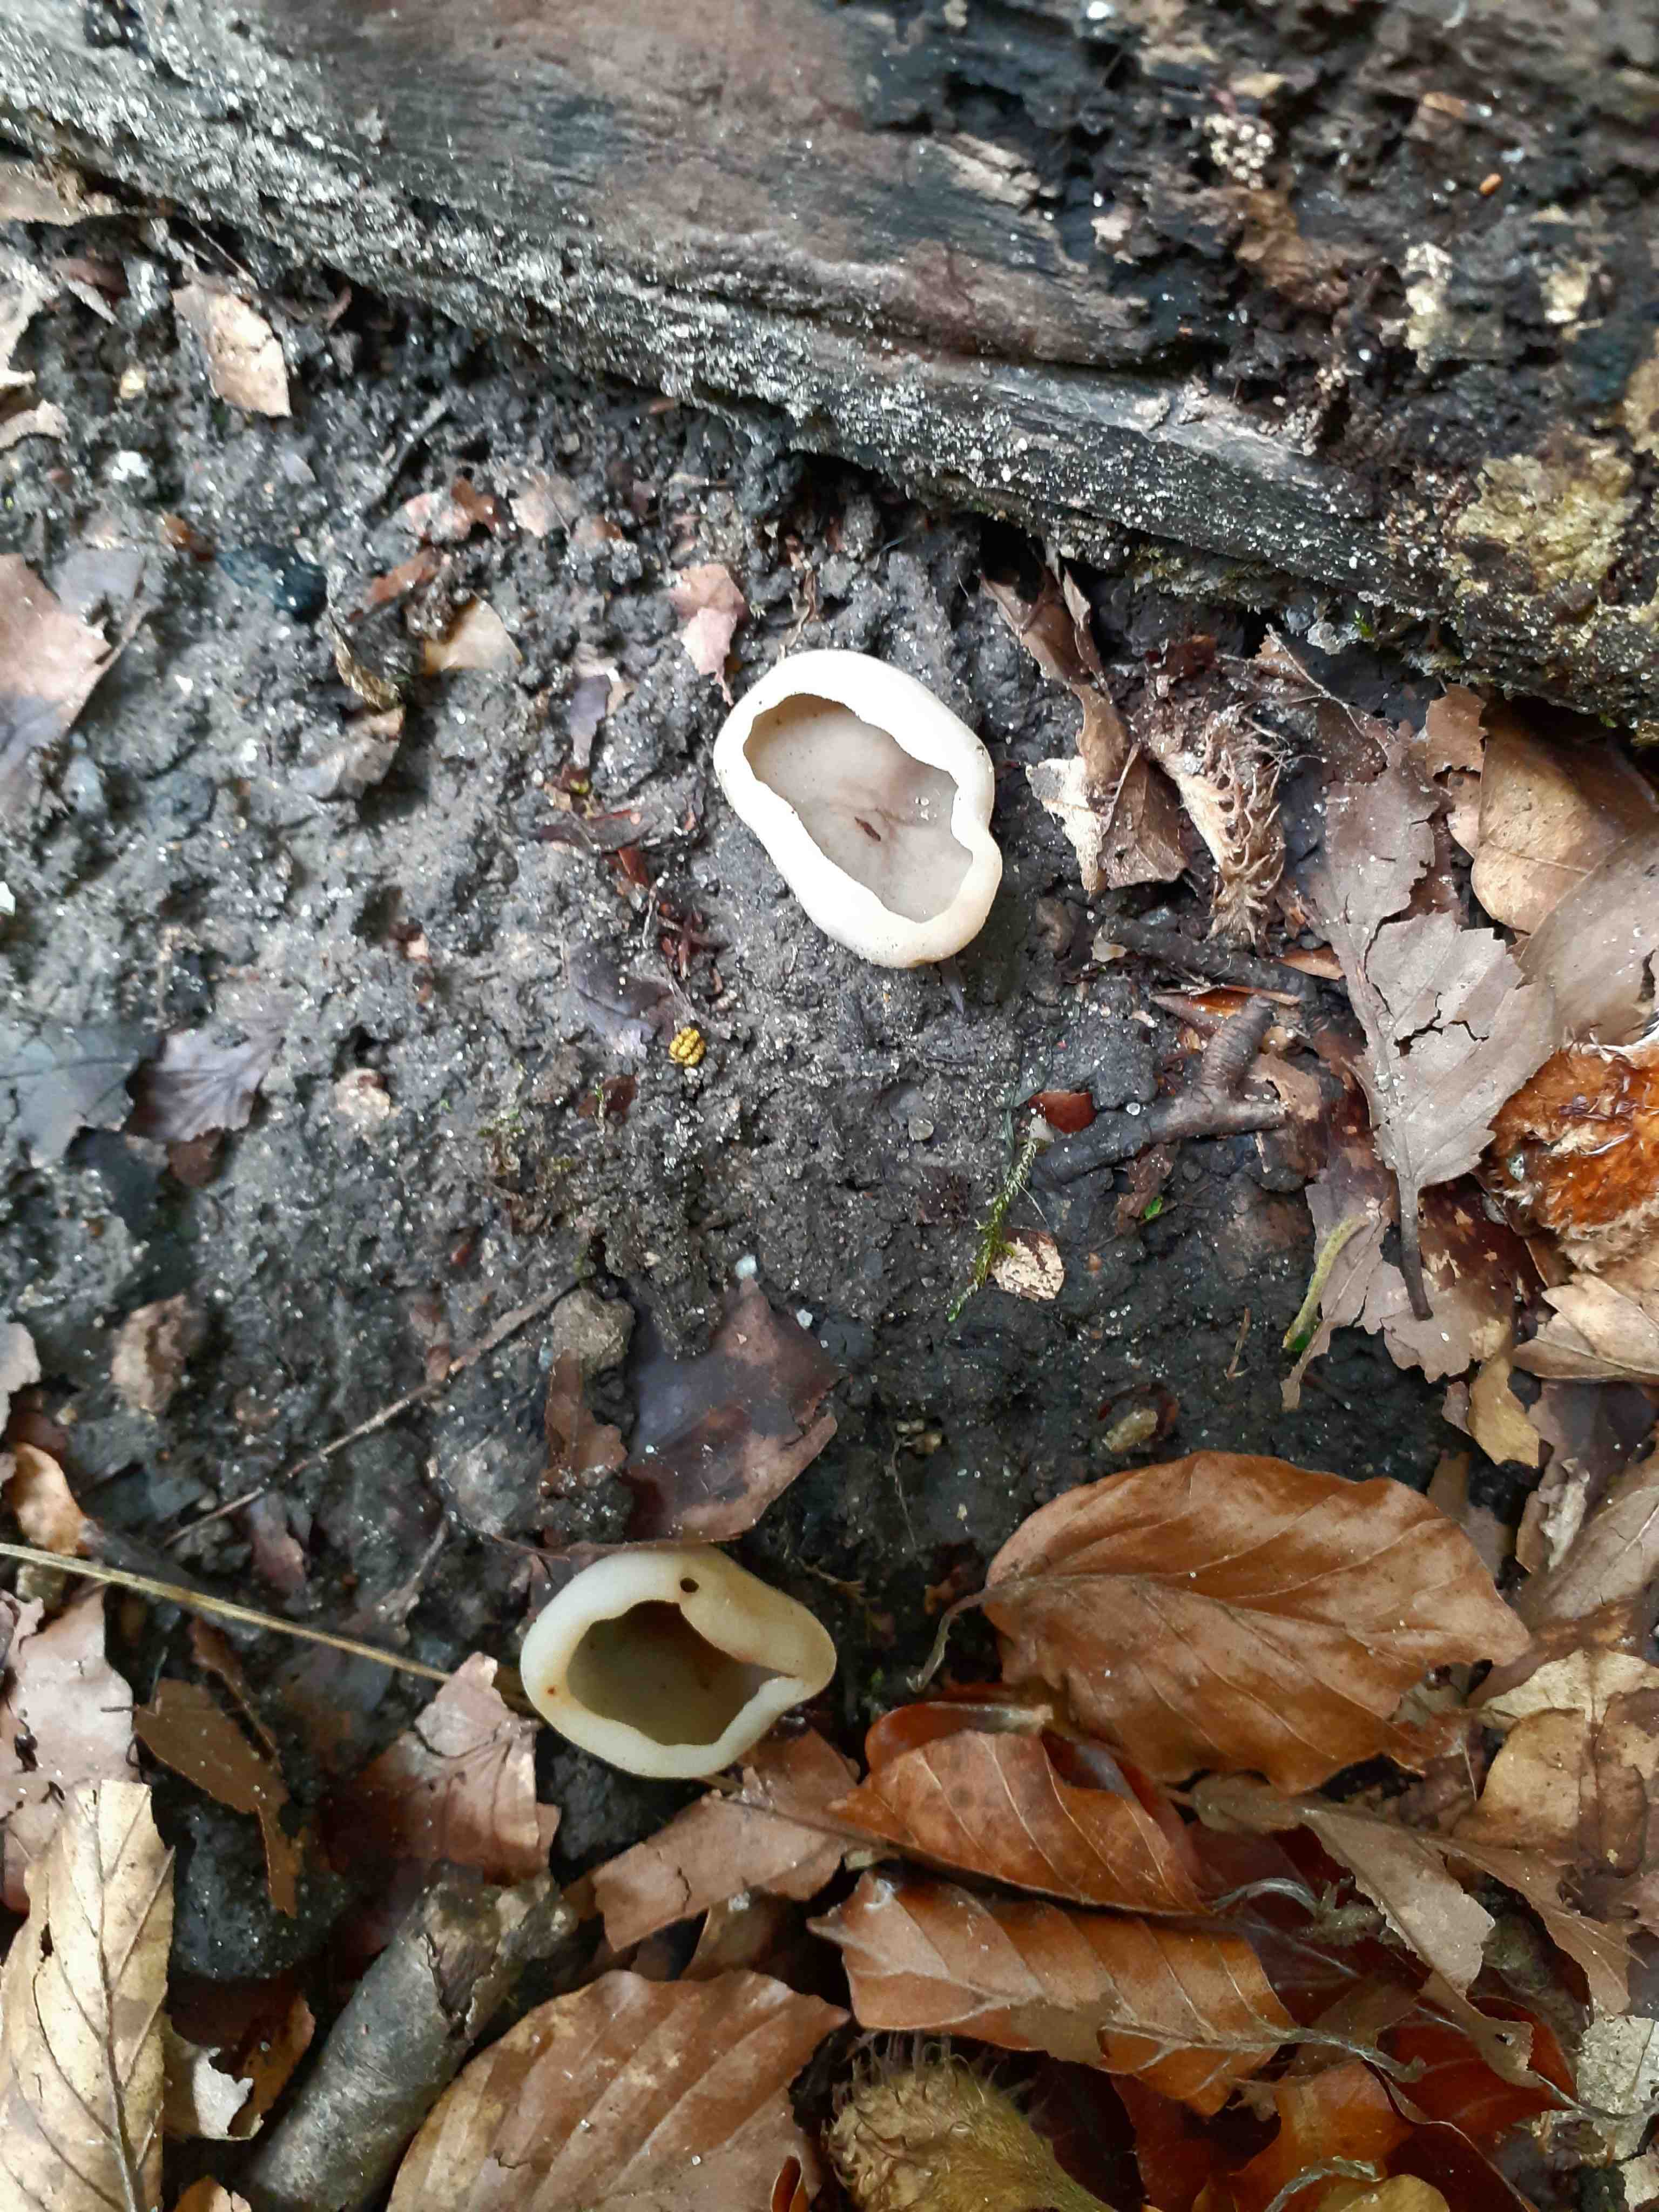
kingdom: Fungi
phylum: Ascomycota
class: Pezizomycetes
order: Pezizales
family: Pezizaceae
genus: Paragalactinia
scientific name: Paragalactinia succosa
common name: gulmælket bægersvamp
